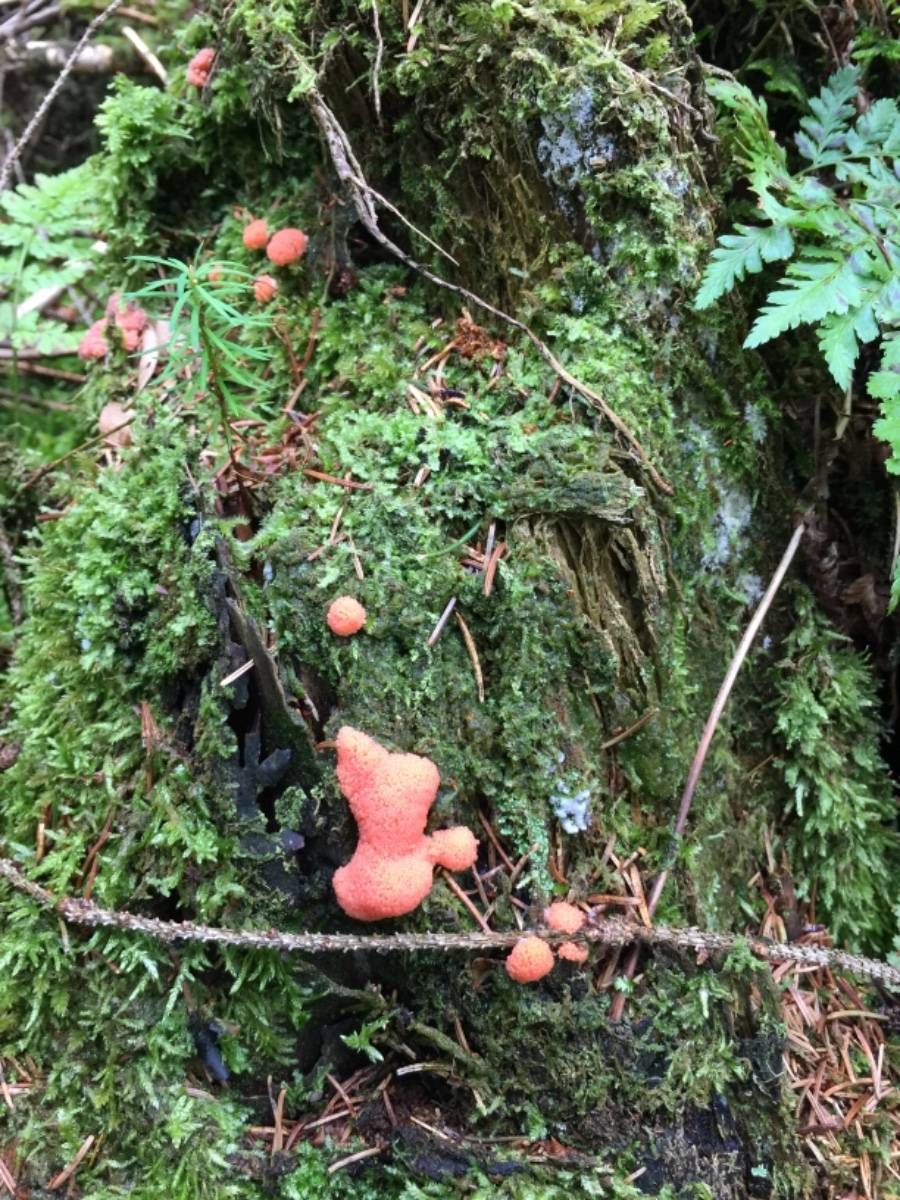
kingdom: Protozoa
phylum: Mycetozoa
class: Myxomycetes
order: Cribrariales
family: Tubiferaceae
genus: Tubifera
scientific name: Tubifera ferruginosa
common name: kanel-støvrør
